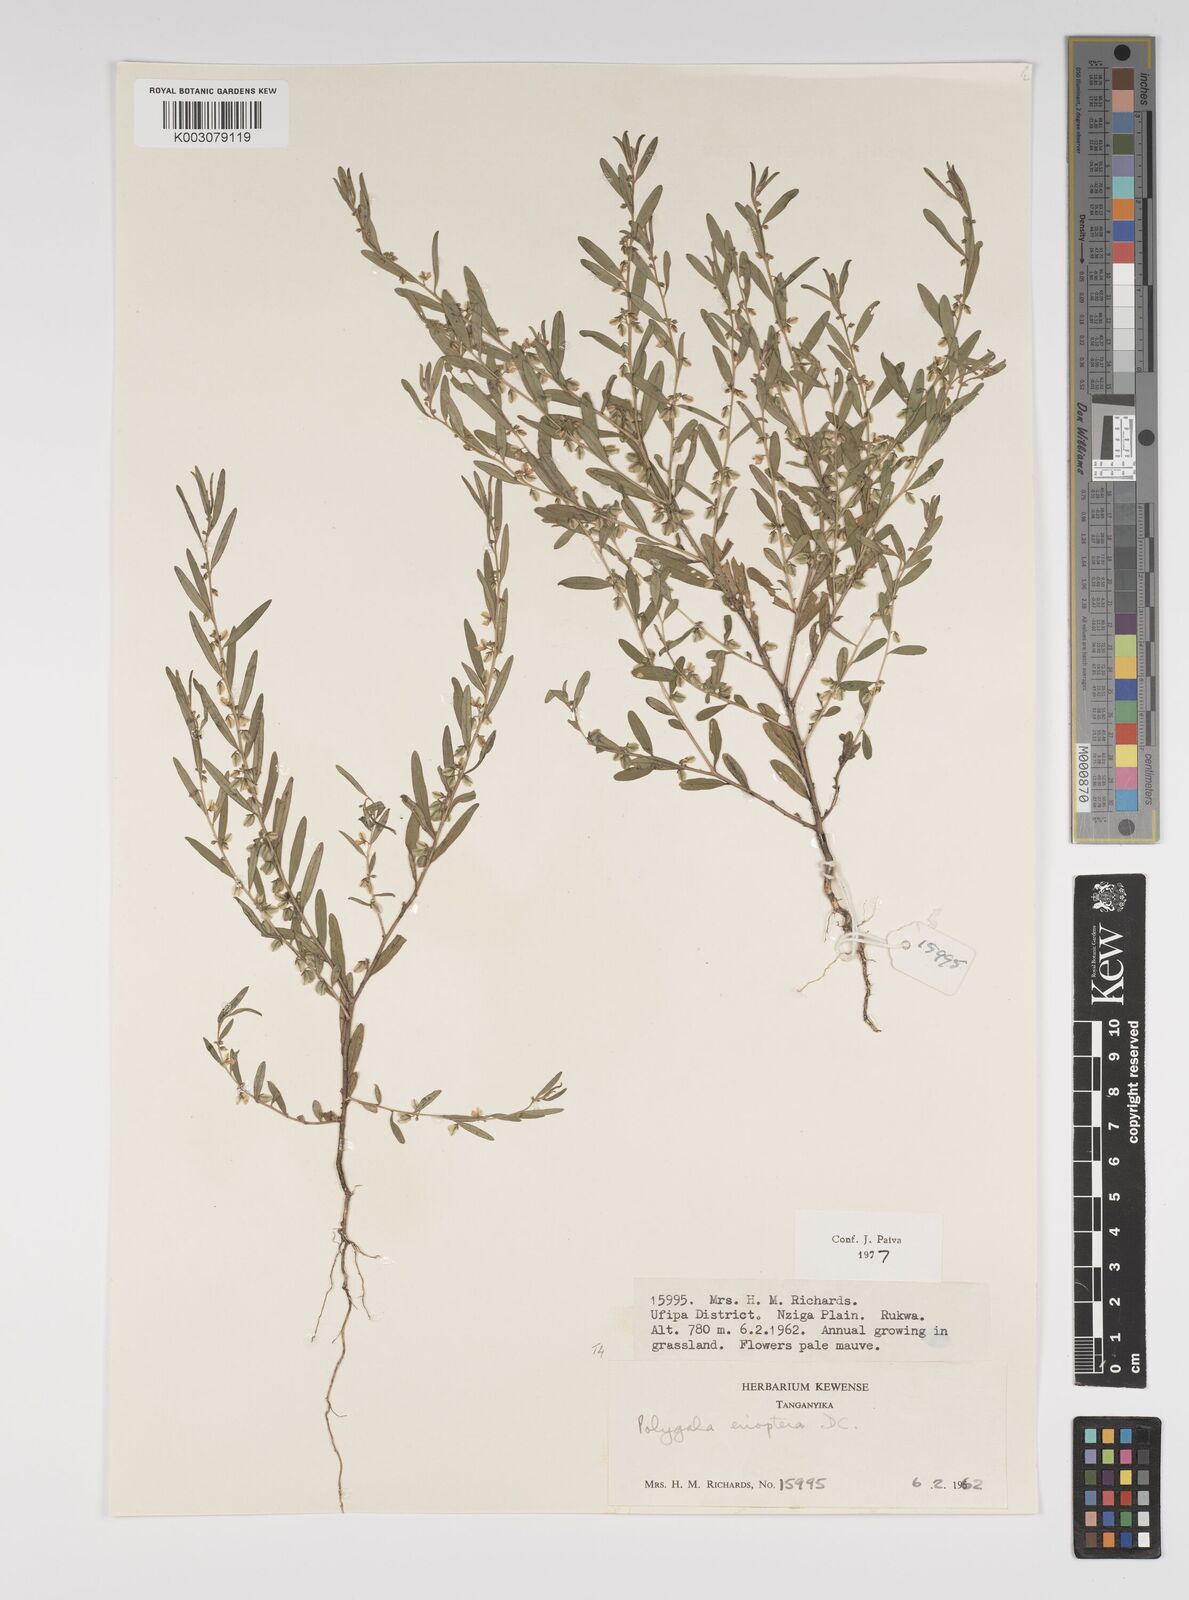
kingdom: Plantae
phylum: Tracheophyta
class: Magnoliopsida
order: Fabales
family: Polygalaceae
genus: Polygala
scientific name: Polygala erioptera
